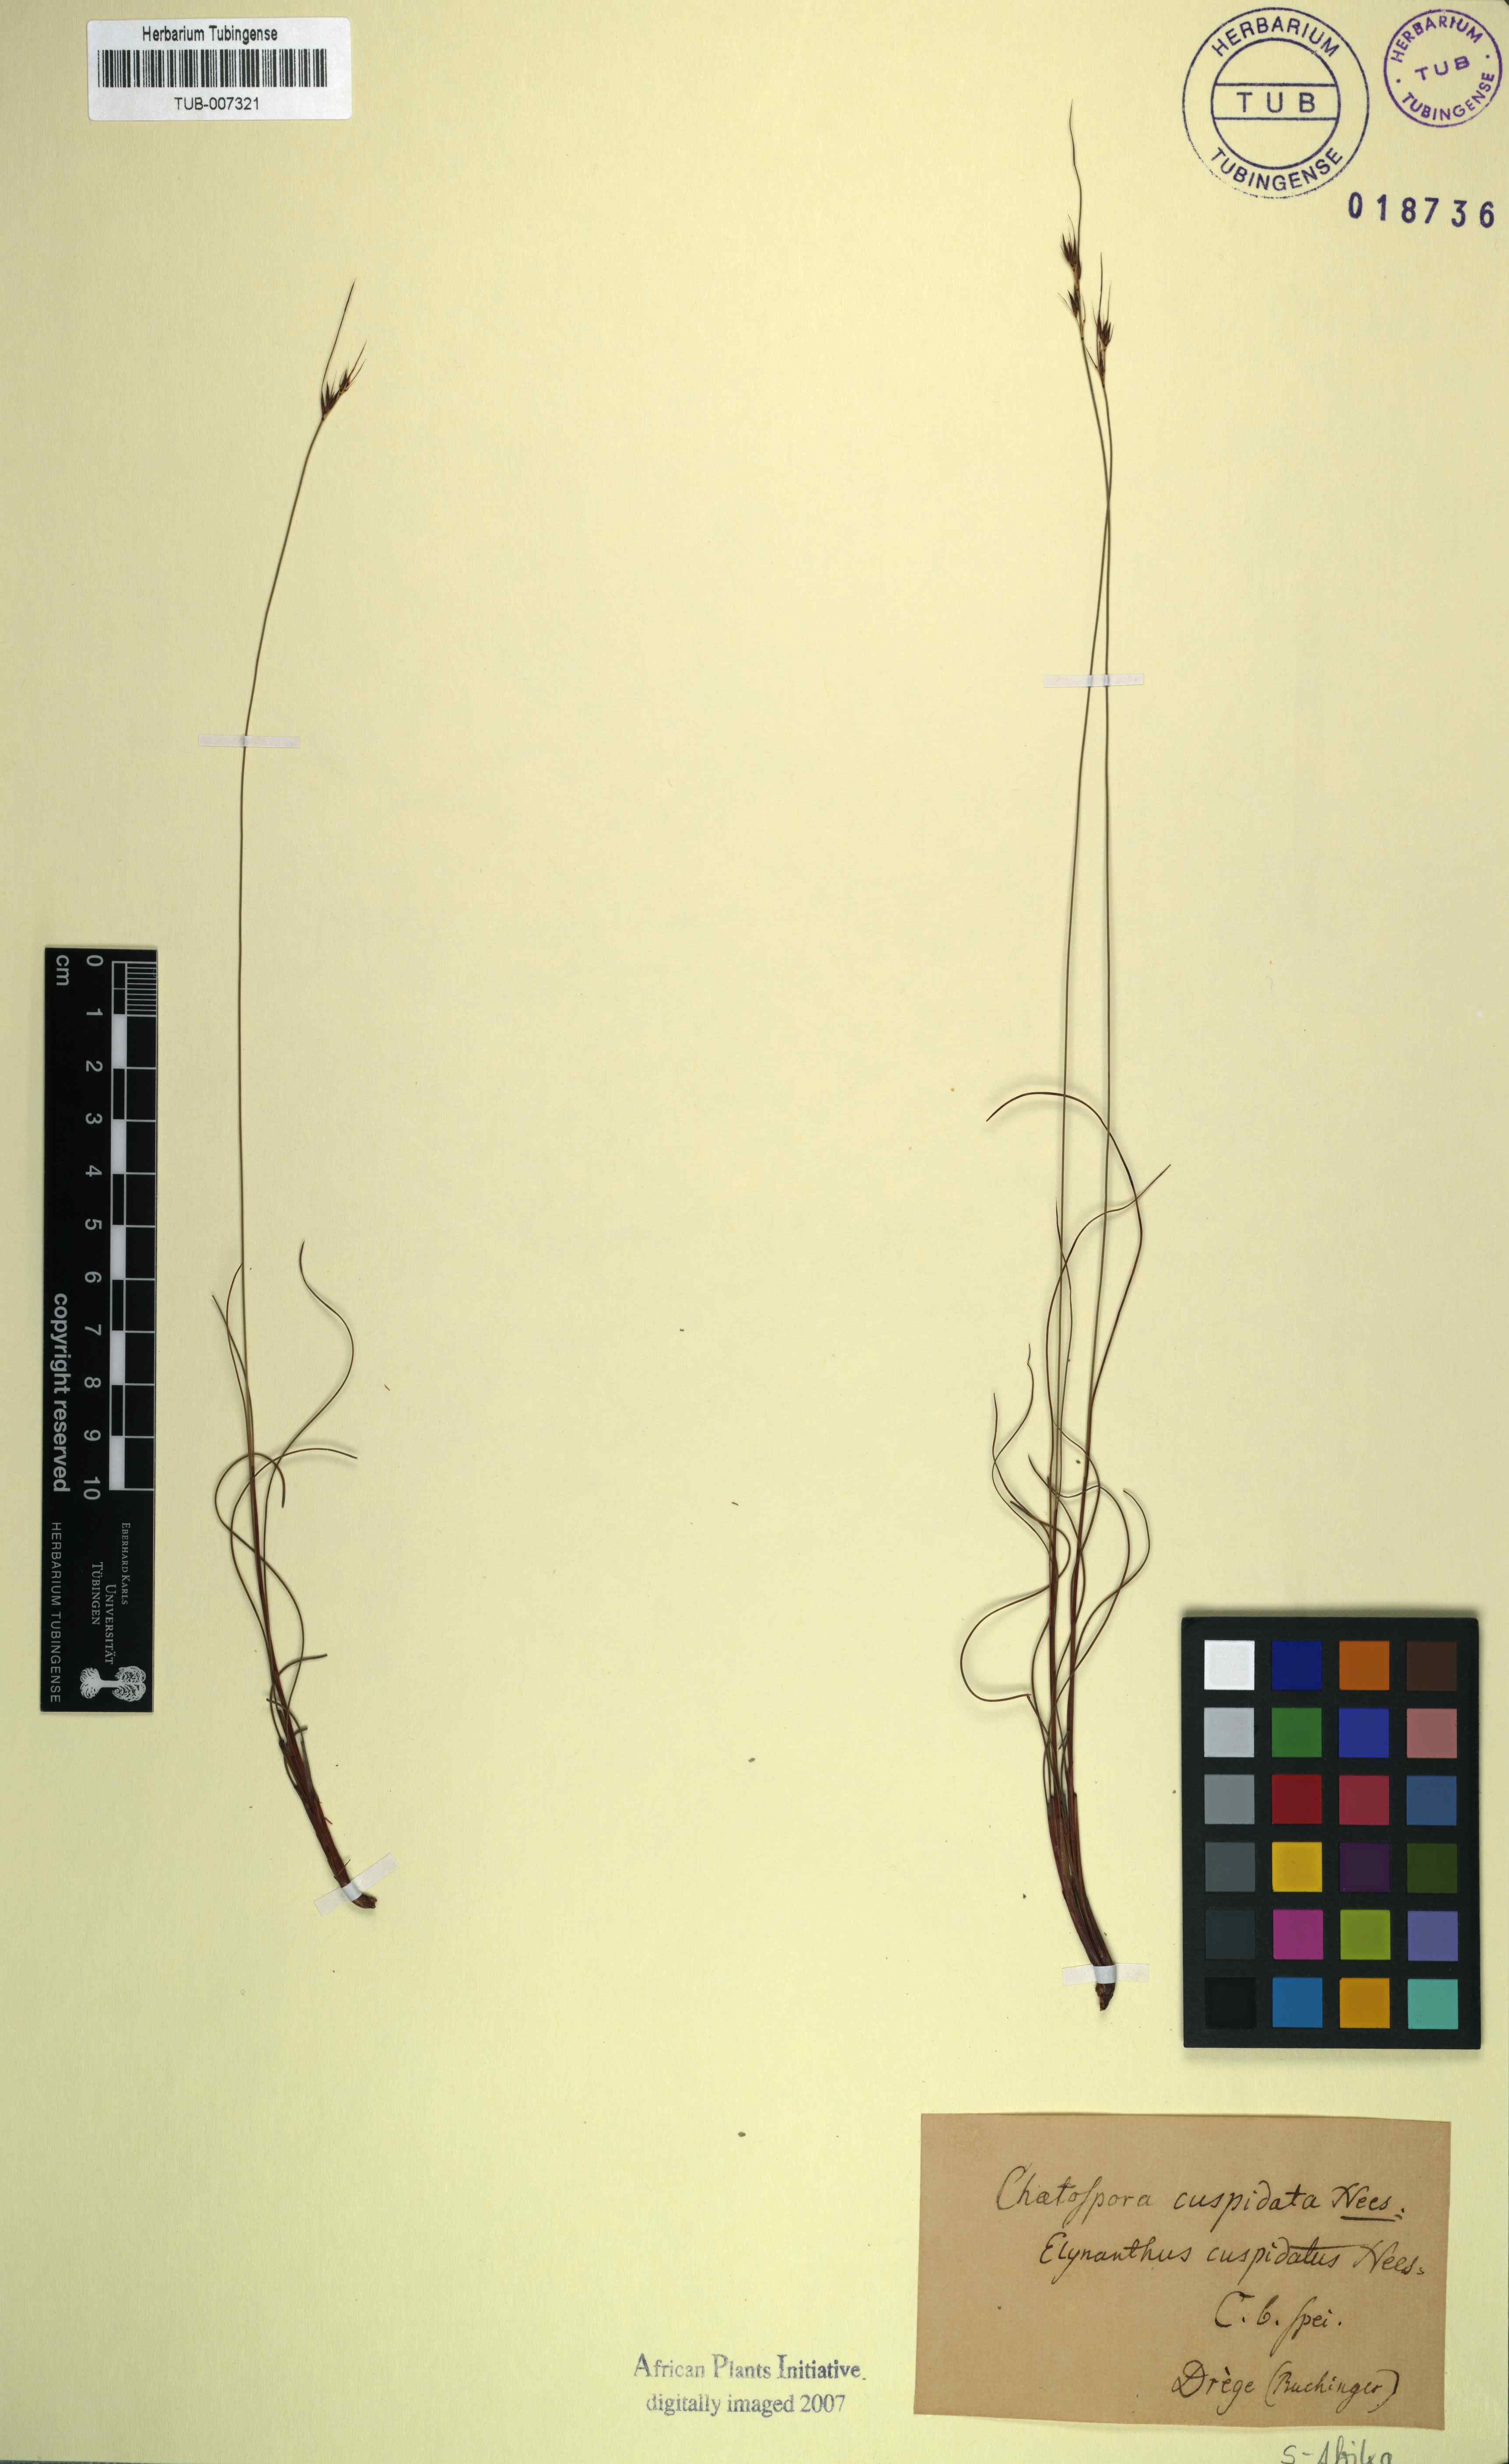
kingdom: Plantae
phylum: Tracheophyta
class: Liliopsida
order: Poales
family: Cyperaceae
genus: Schoenus
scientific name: Schoenus cuspidatus
